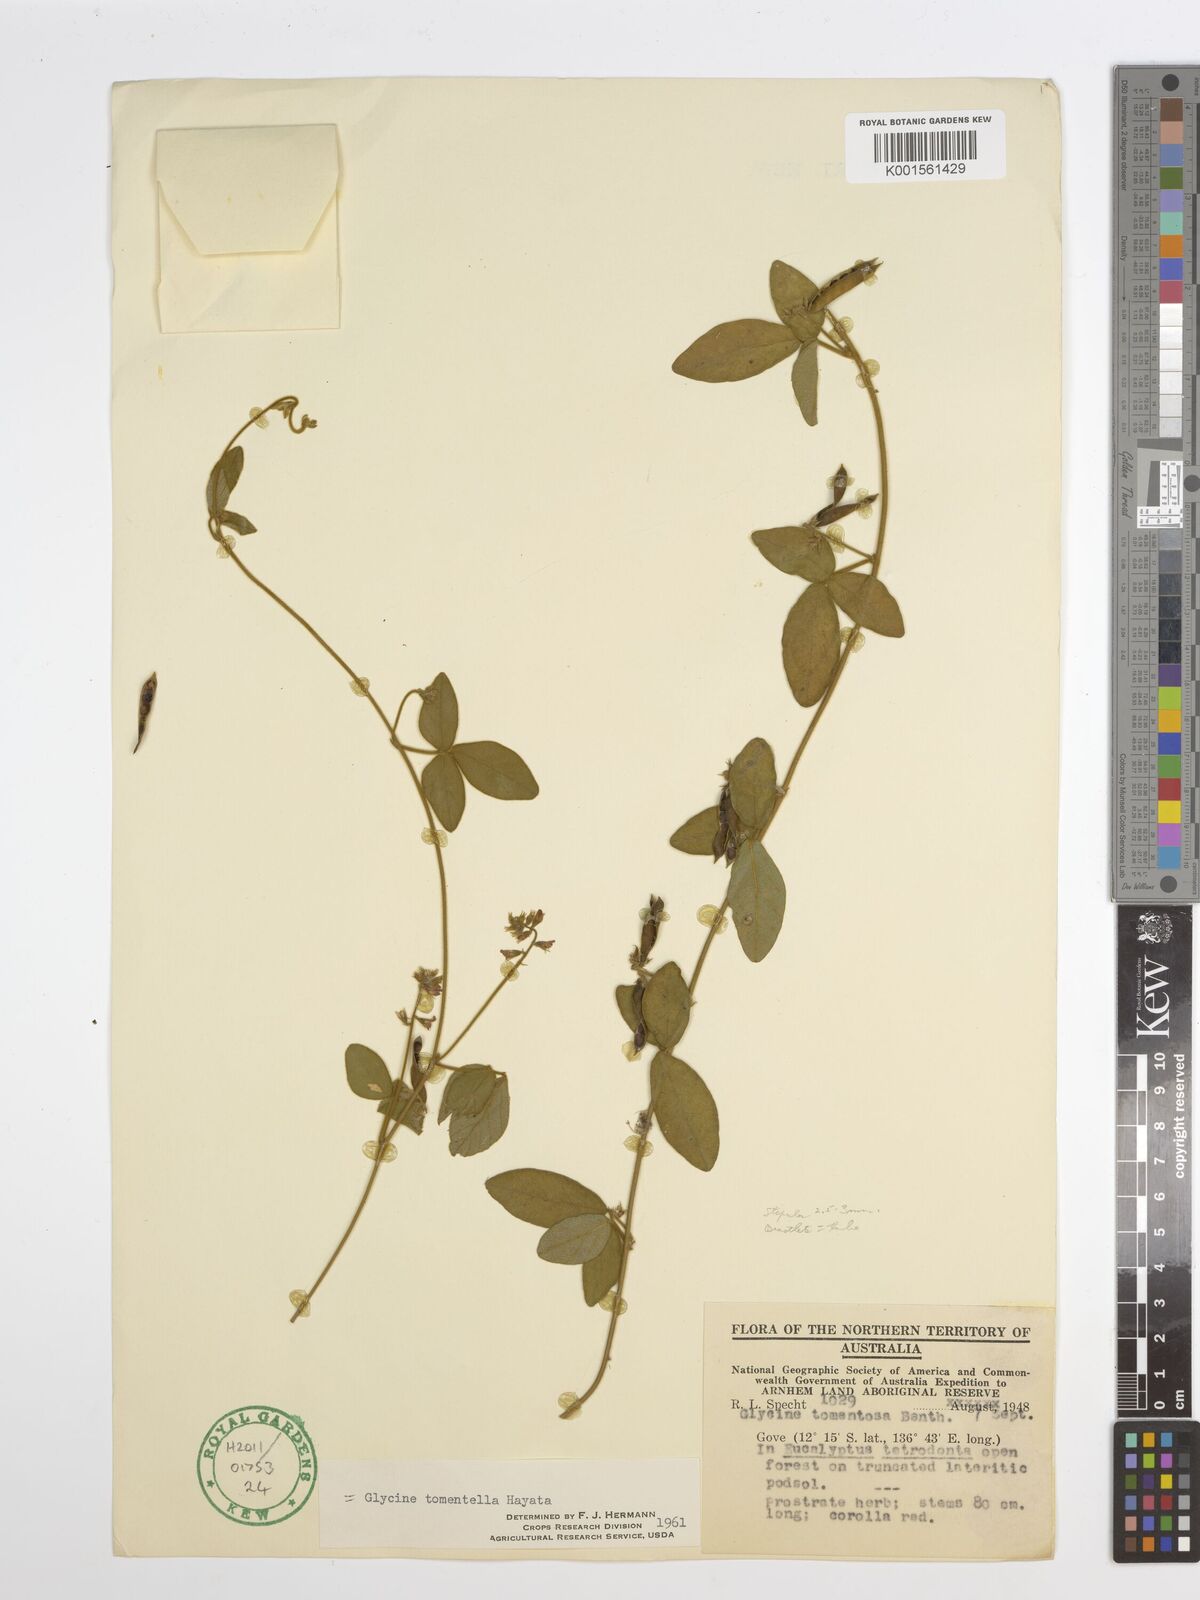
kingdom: Plantae
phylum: Tracheophyta
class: Magnoliopsida
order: Fabales
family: Fabaceae
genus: Glycine
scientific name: Glycine tomentella
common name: Hairy glycine
